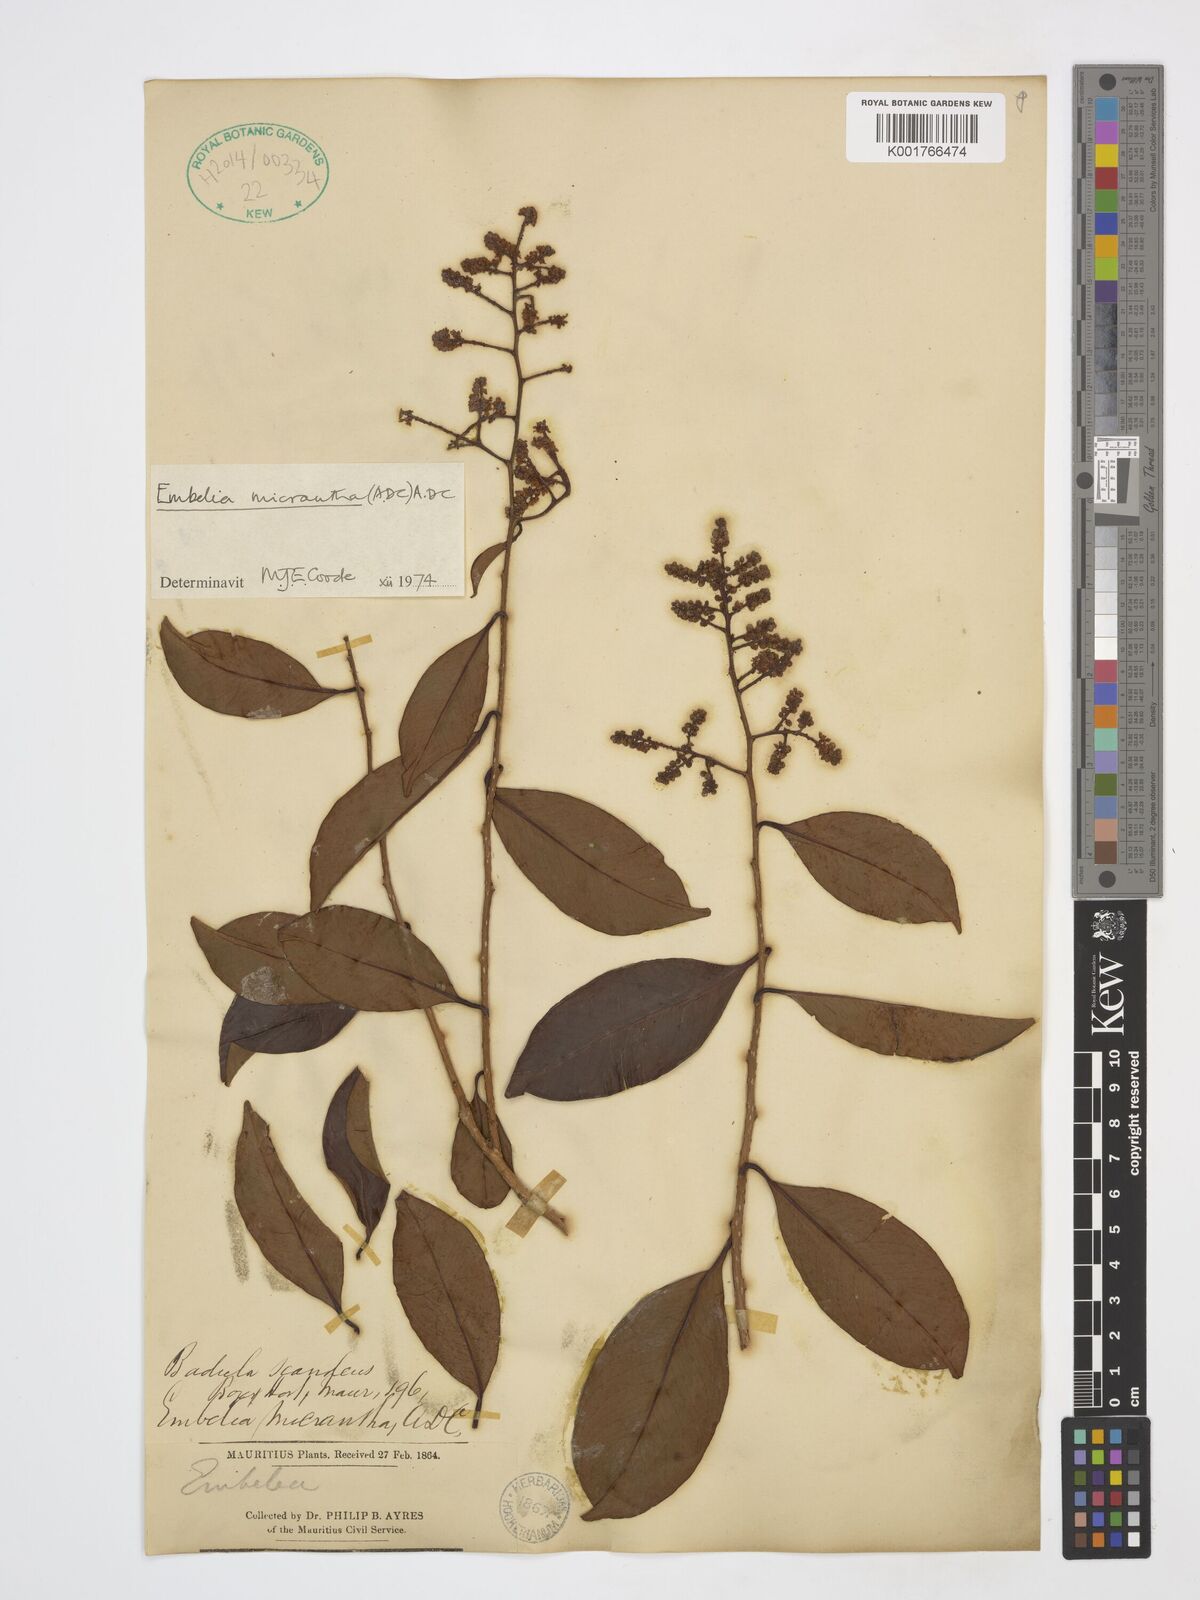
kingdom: Plantae
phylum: Tracheophyta
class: Magnoliopsida
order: Ericales
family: Primulaceae
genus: Embelia
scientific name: Embelia micrantha
